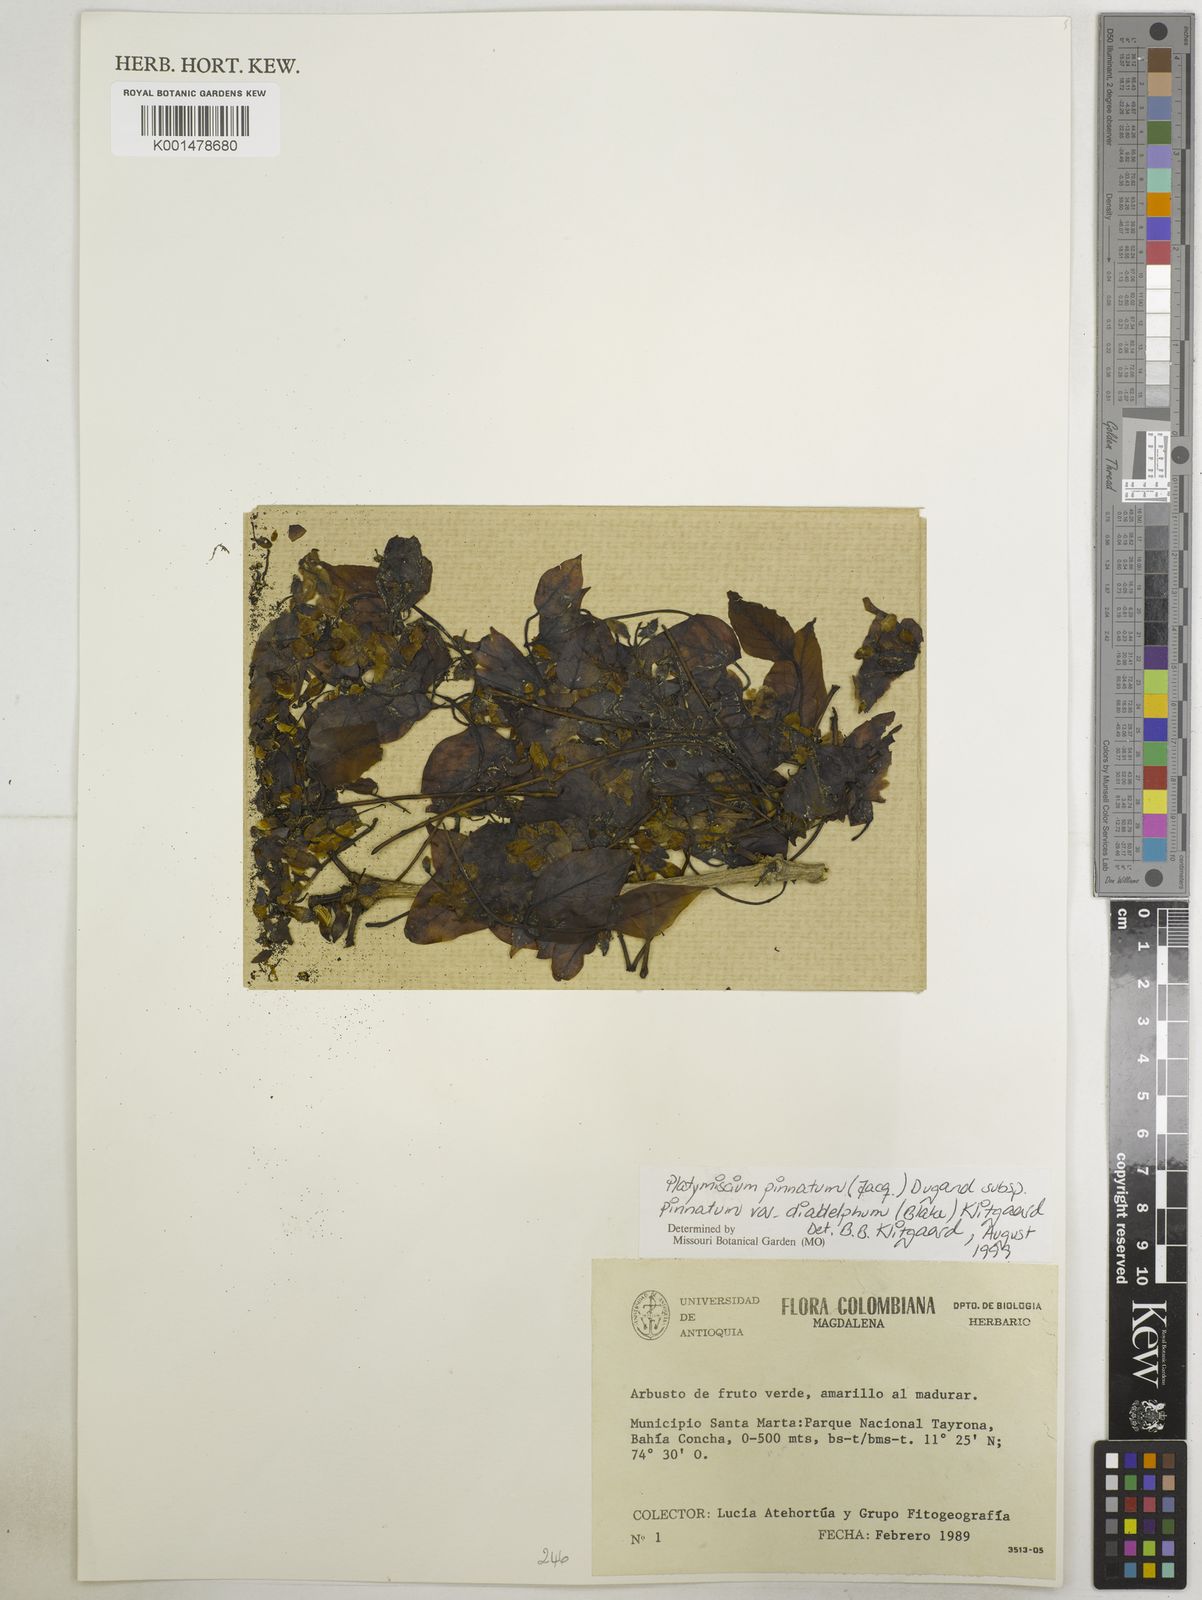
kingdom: Plantae
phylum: Tracheophyta
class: Magnoliopsida
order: Fabales
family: Fabaceae
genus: Platymiscium
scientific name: Platymiscium pinnatum
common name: Panama redwood
